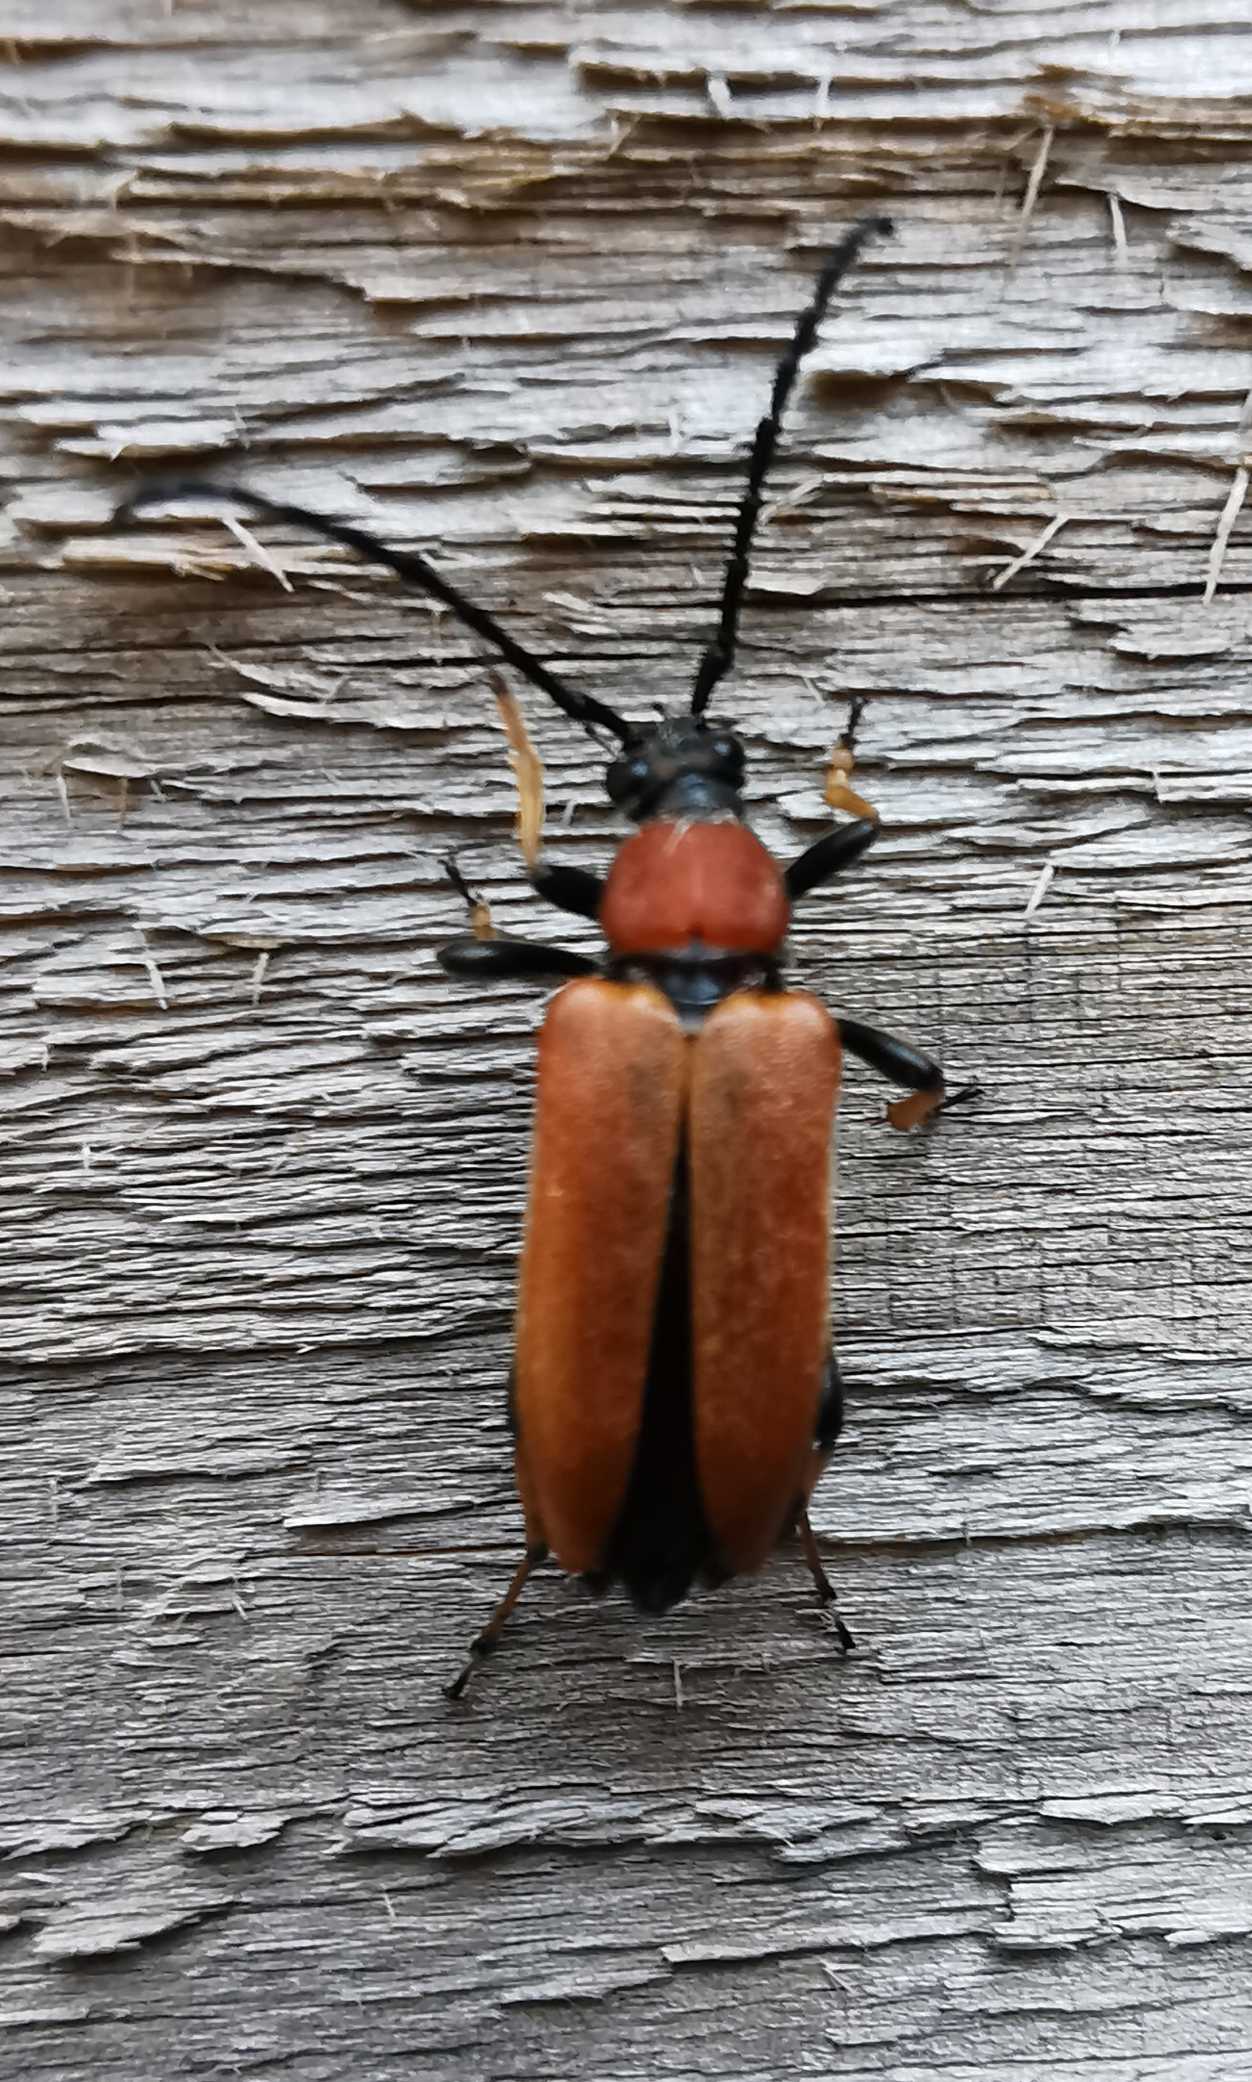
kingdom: Animalia
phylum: Arthropoda
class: Insecta
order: Coleoptera
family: Cerambycidae
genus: Stictoleptura
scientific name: Stictoleptura rubra
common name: Rød blomsterbuk
